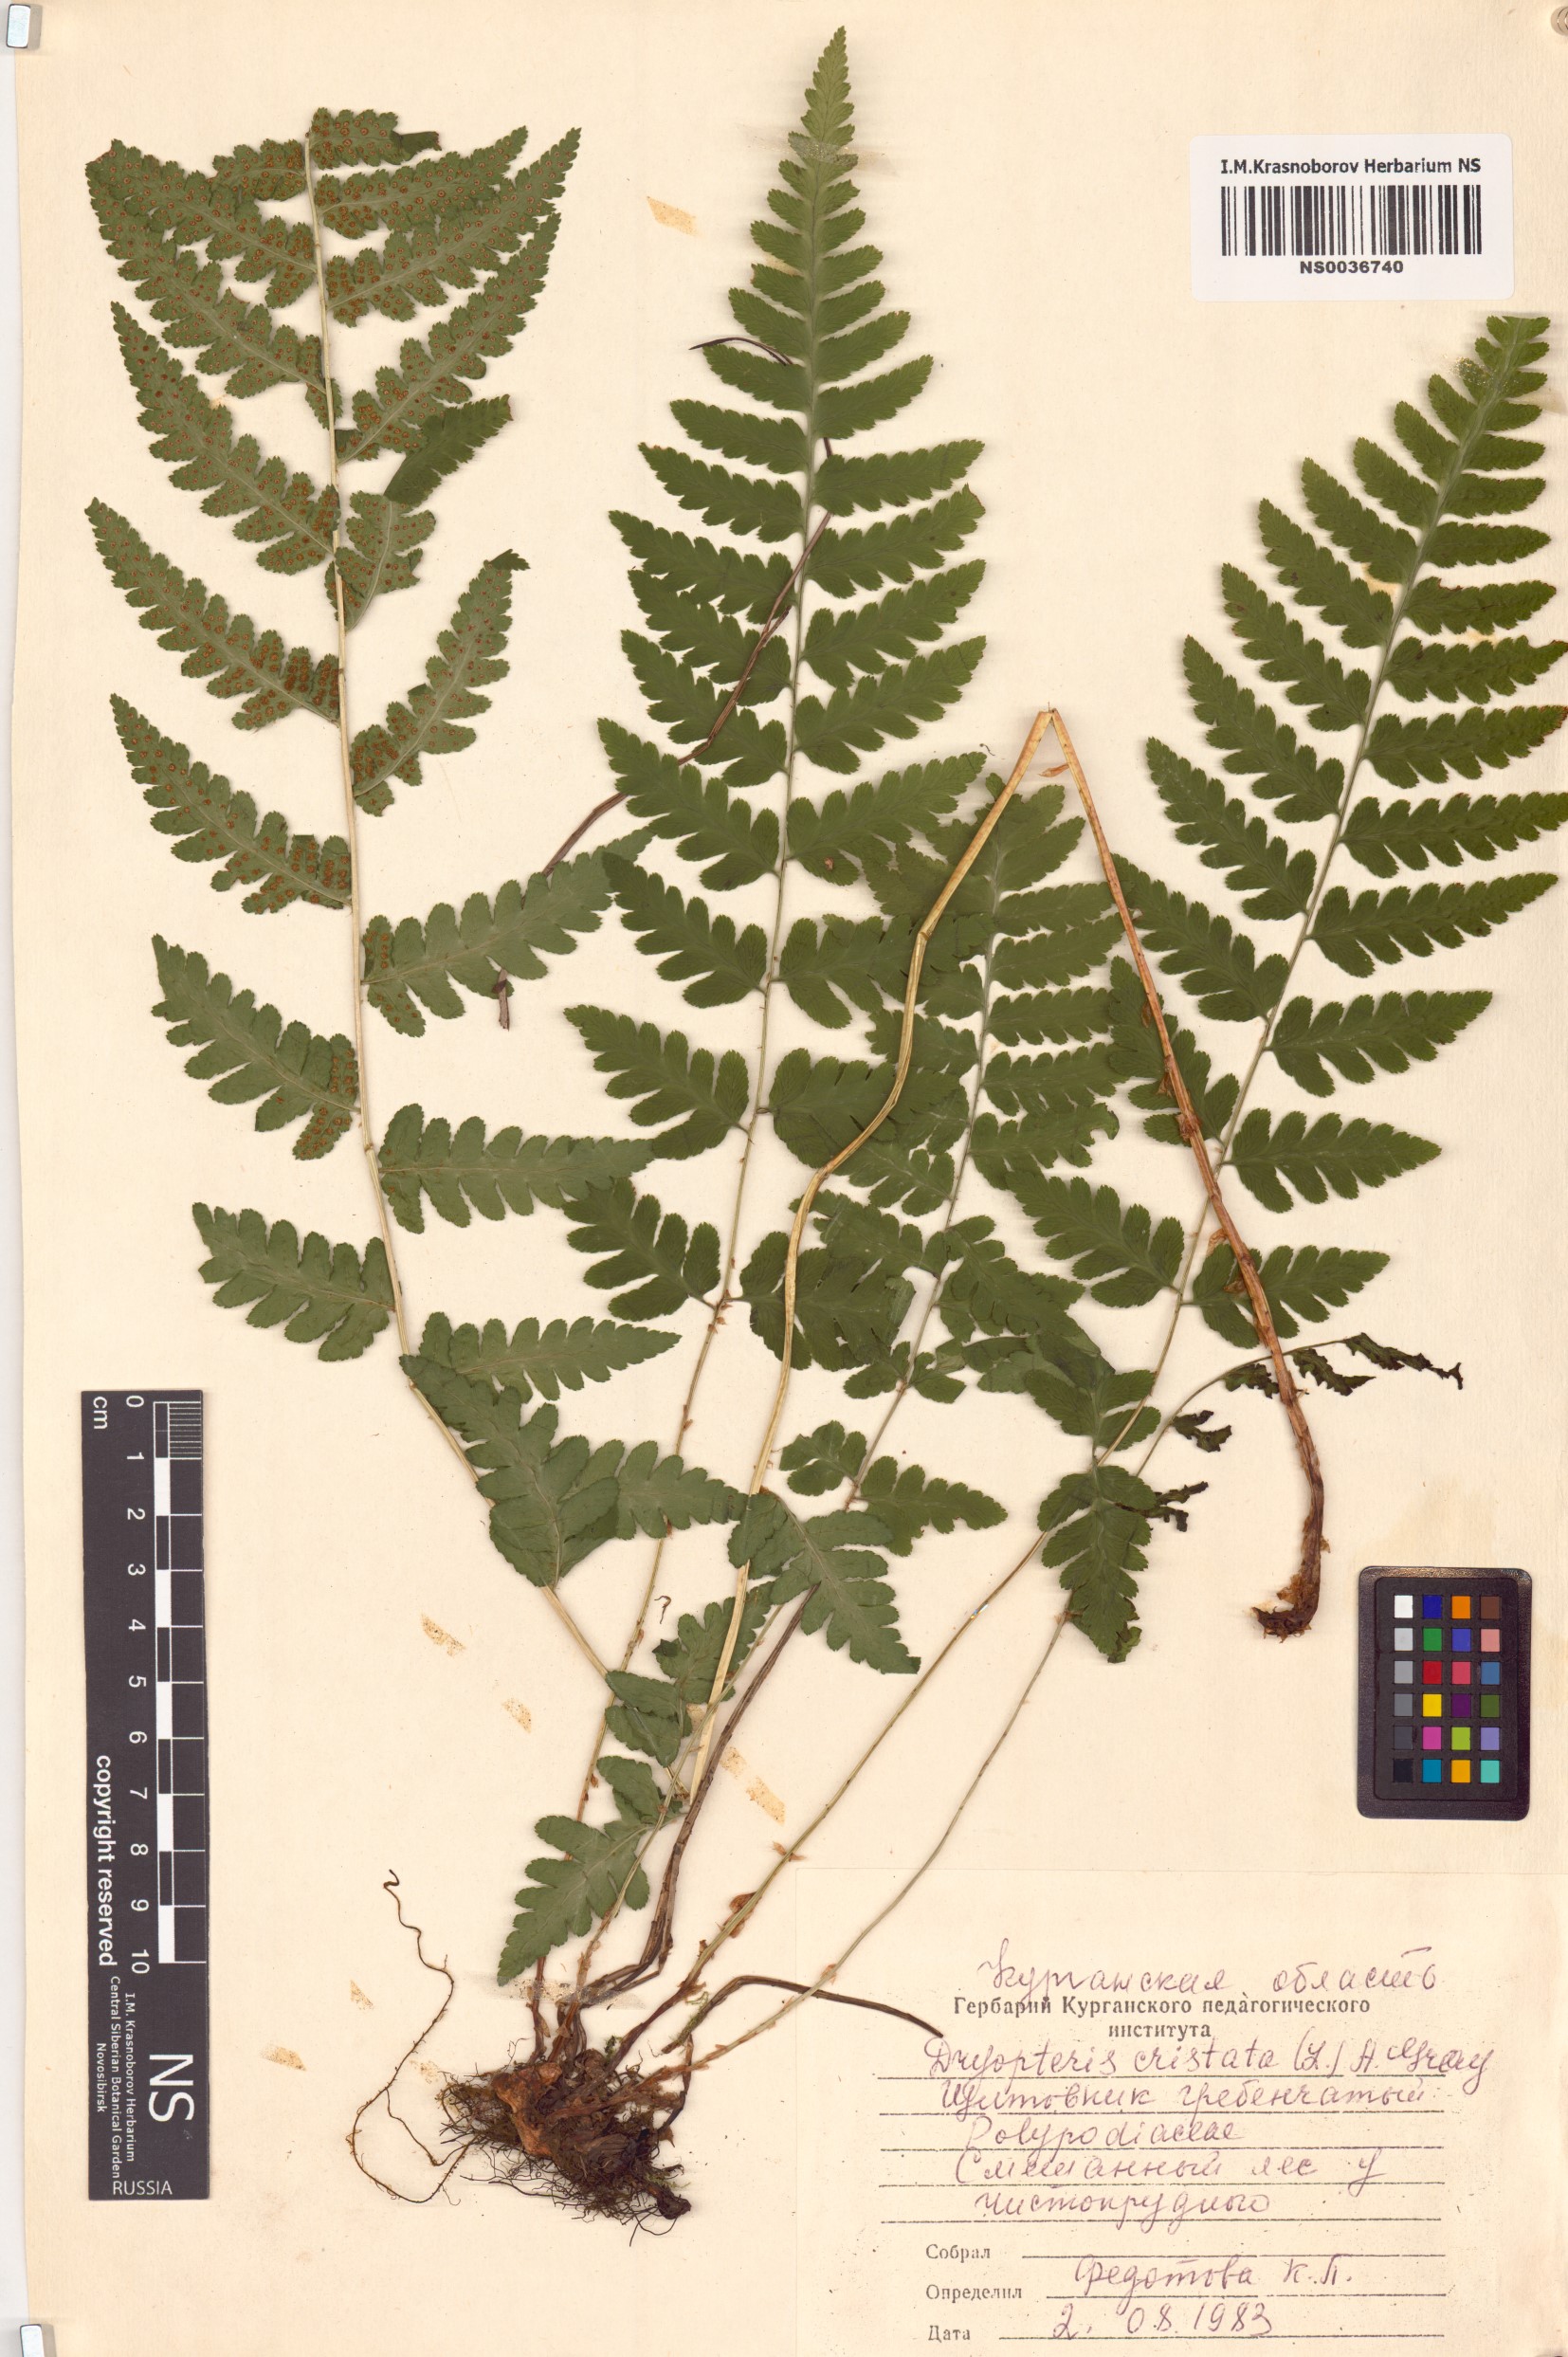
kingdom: Plantae
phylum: Tracheophyta
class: Polypodiopsida
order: Polypodiales
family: Dryopteridaceae
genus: Dryopteris
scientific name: Dryopteris cristata
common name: Crested wood fern
